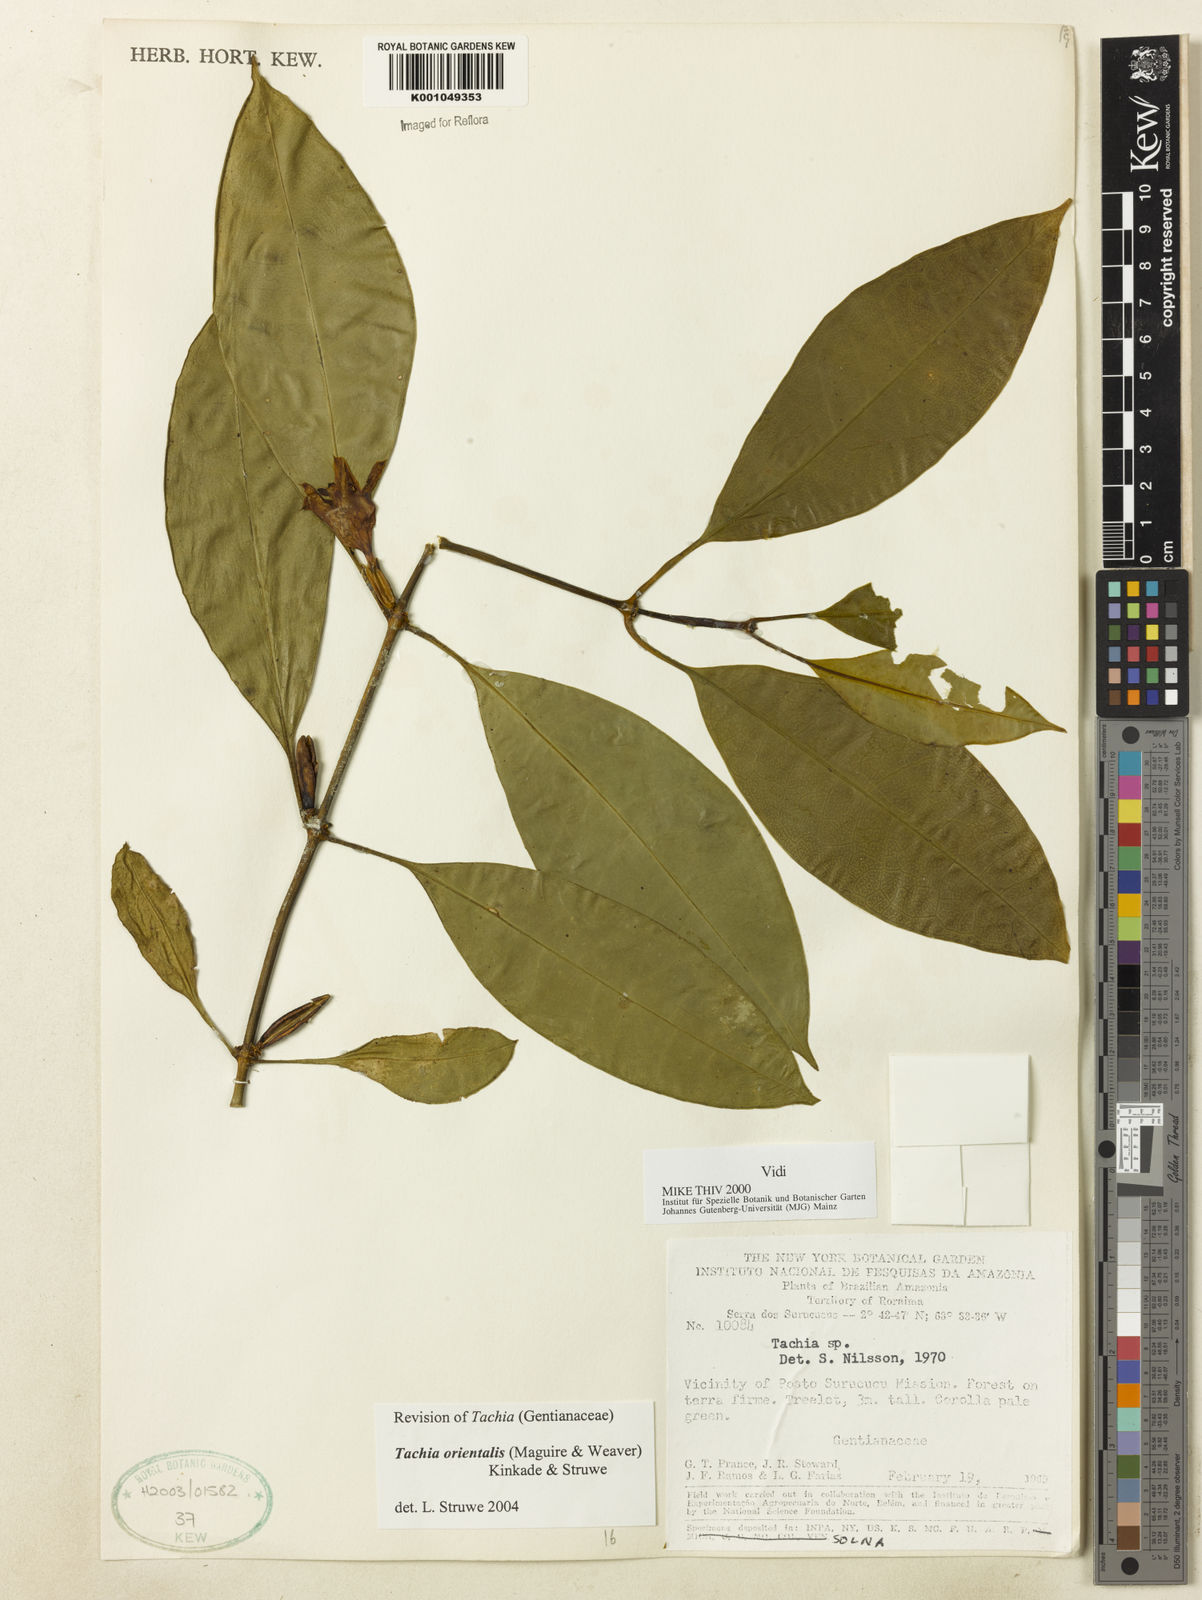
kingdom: Plantae
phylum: Tracheophyta
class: Magnoliopsida
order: Gentianales
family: Gentianaceae
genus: Tachia
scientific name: Tachia orientalis
